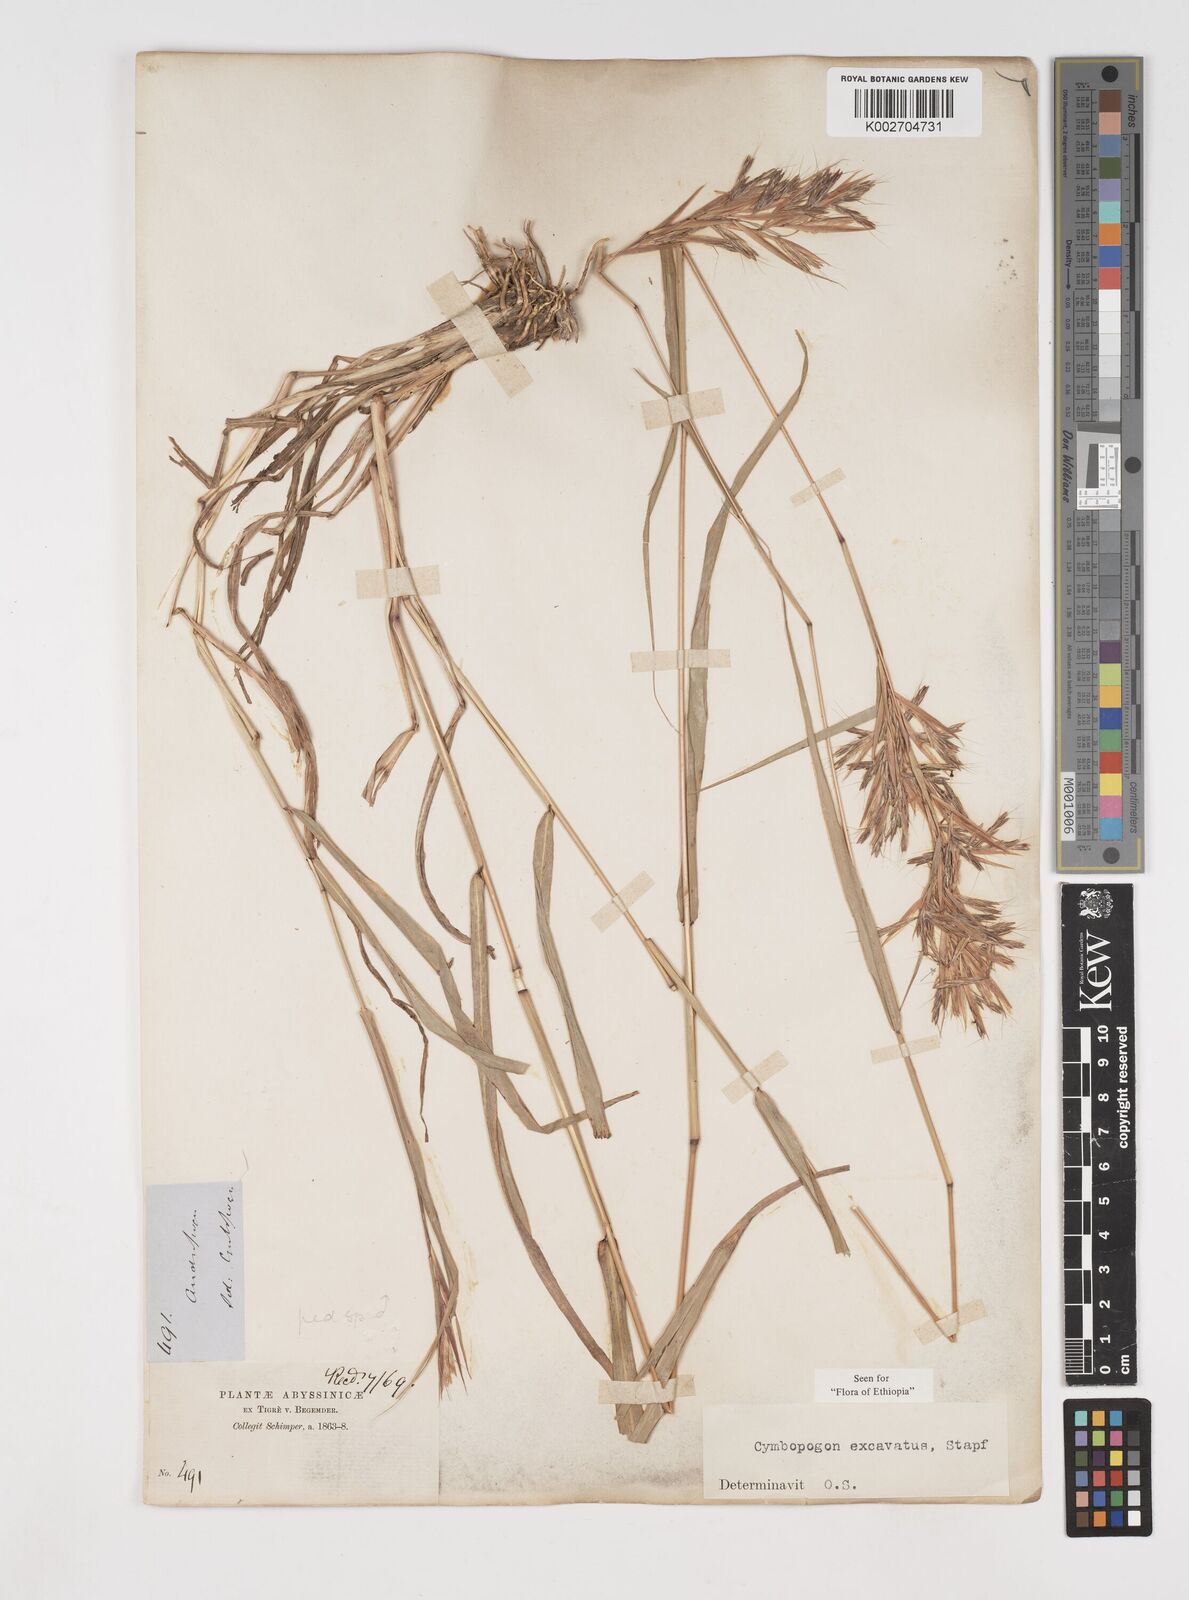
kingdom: Plantae
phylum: Tracheophyta
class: Liliopsida
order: Poales
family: Poaceae
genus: Cymbopogon
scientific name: Cymbopogon caesius
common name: Kachi grass
